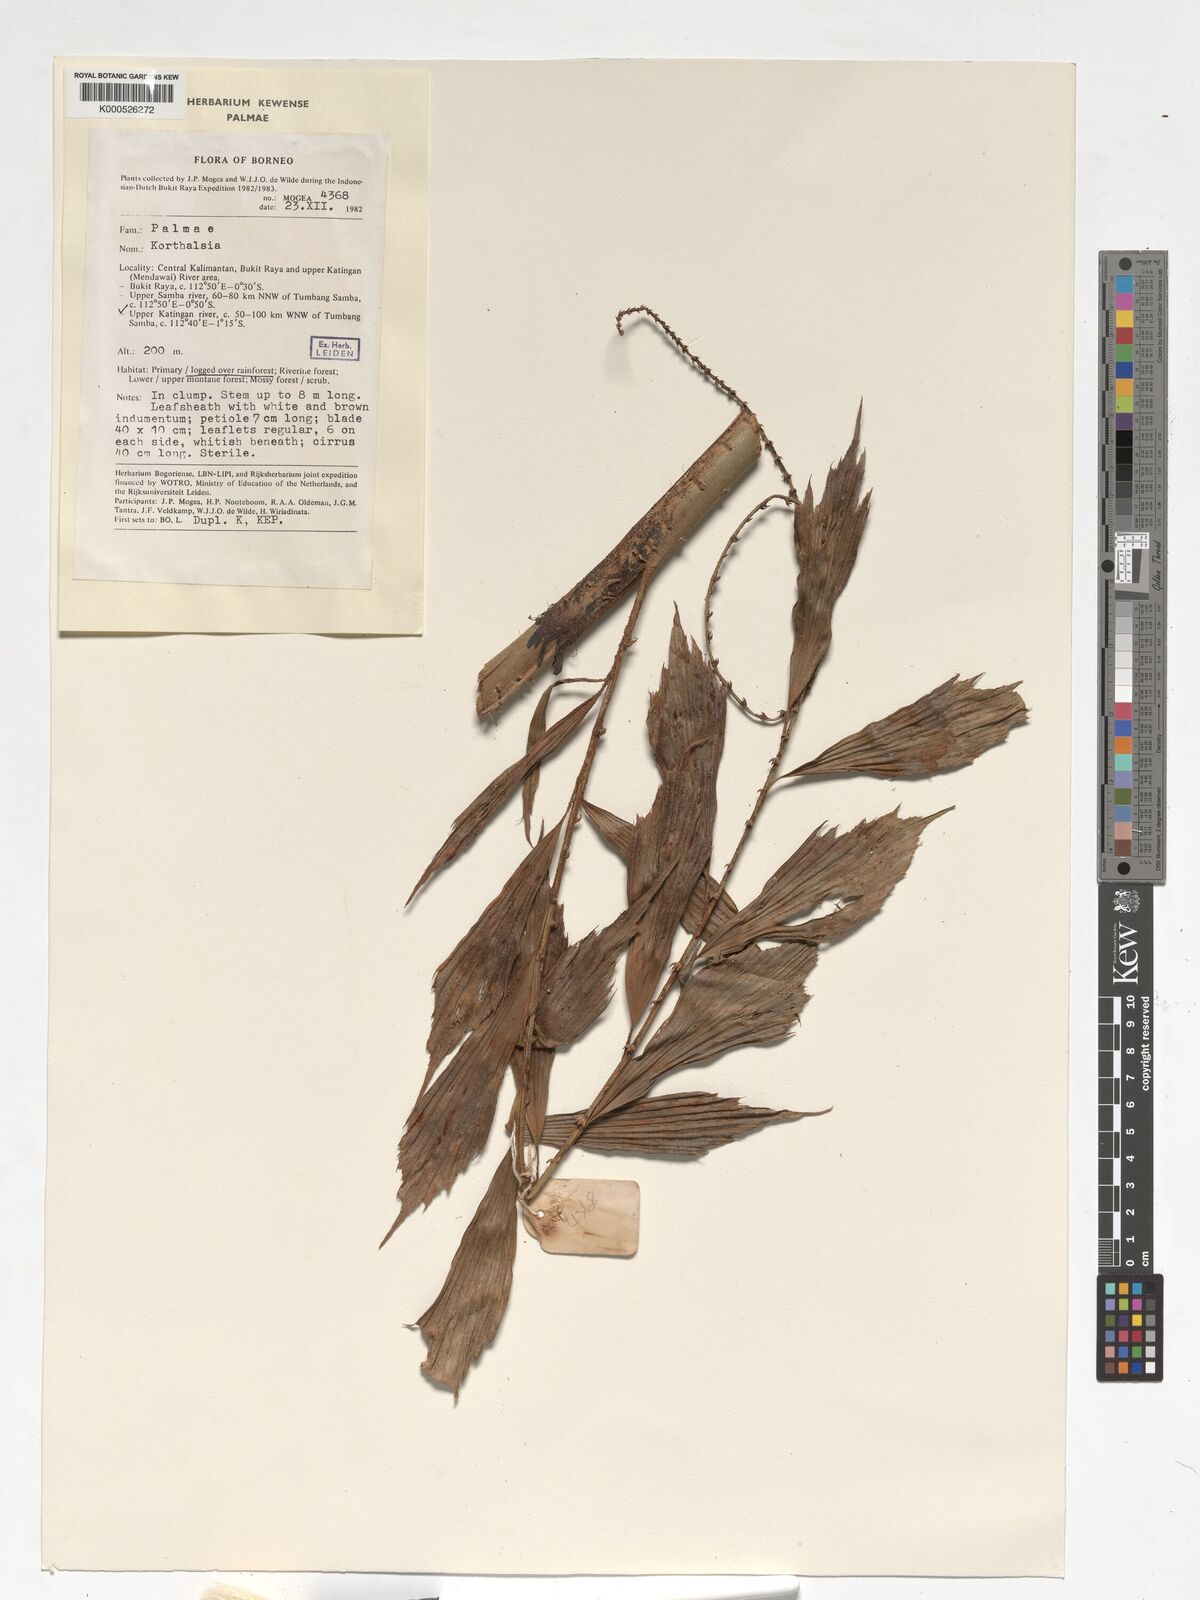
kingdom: Plantae
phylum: Tracheophyta
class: Liliopsida
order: Arecales
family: Arecaceae
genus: Korthalsia
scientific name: Korthalsia
